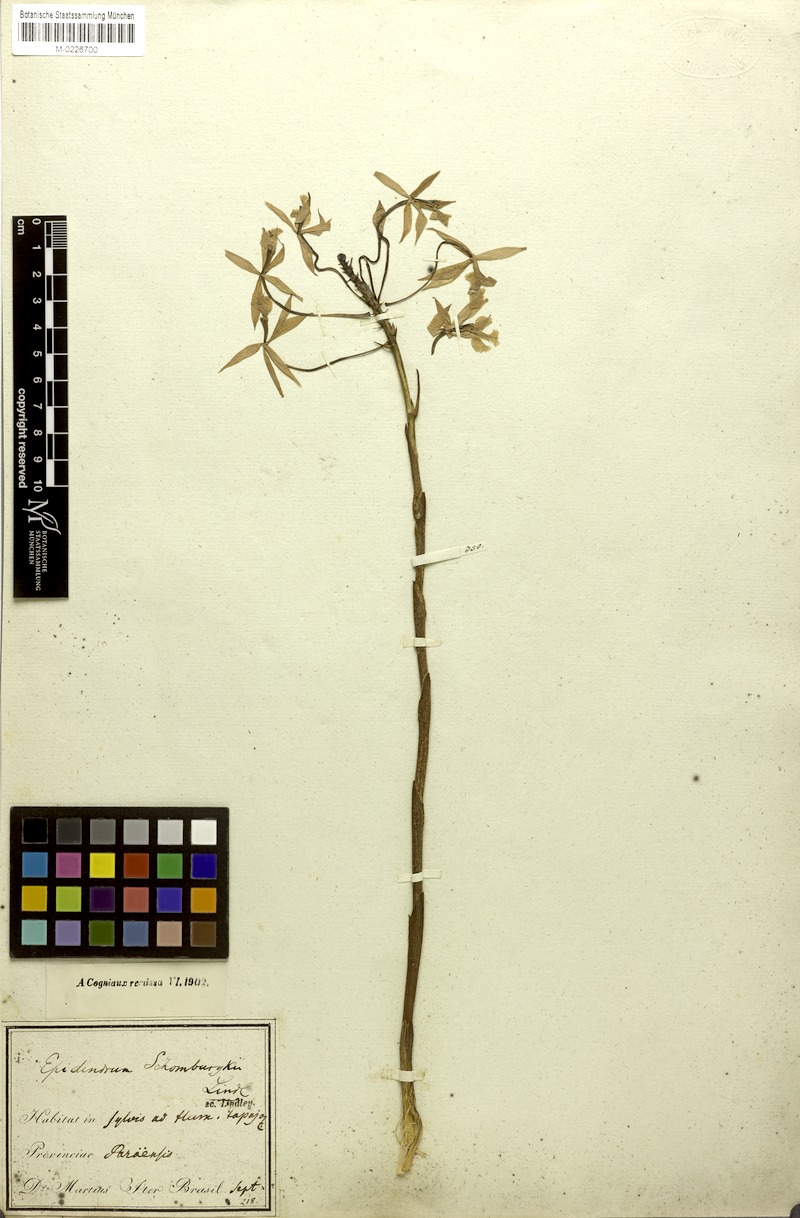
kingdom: Plantae
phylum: Tracheophyta
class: Liliopsida
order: Asparagales
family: Orchidaceae
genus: Epidendrum
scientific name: Epidendrum macrocarpum
